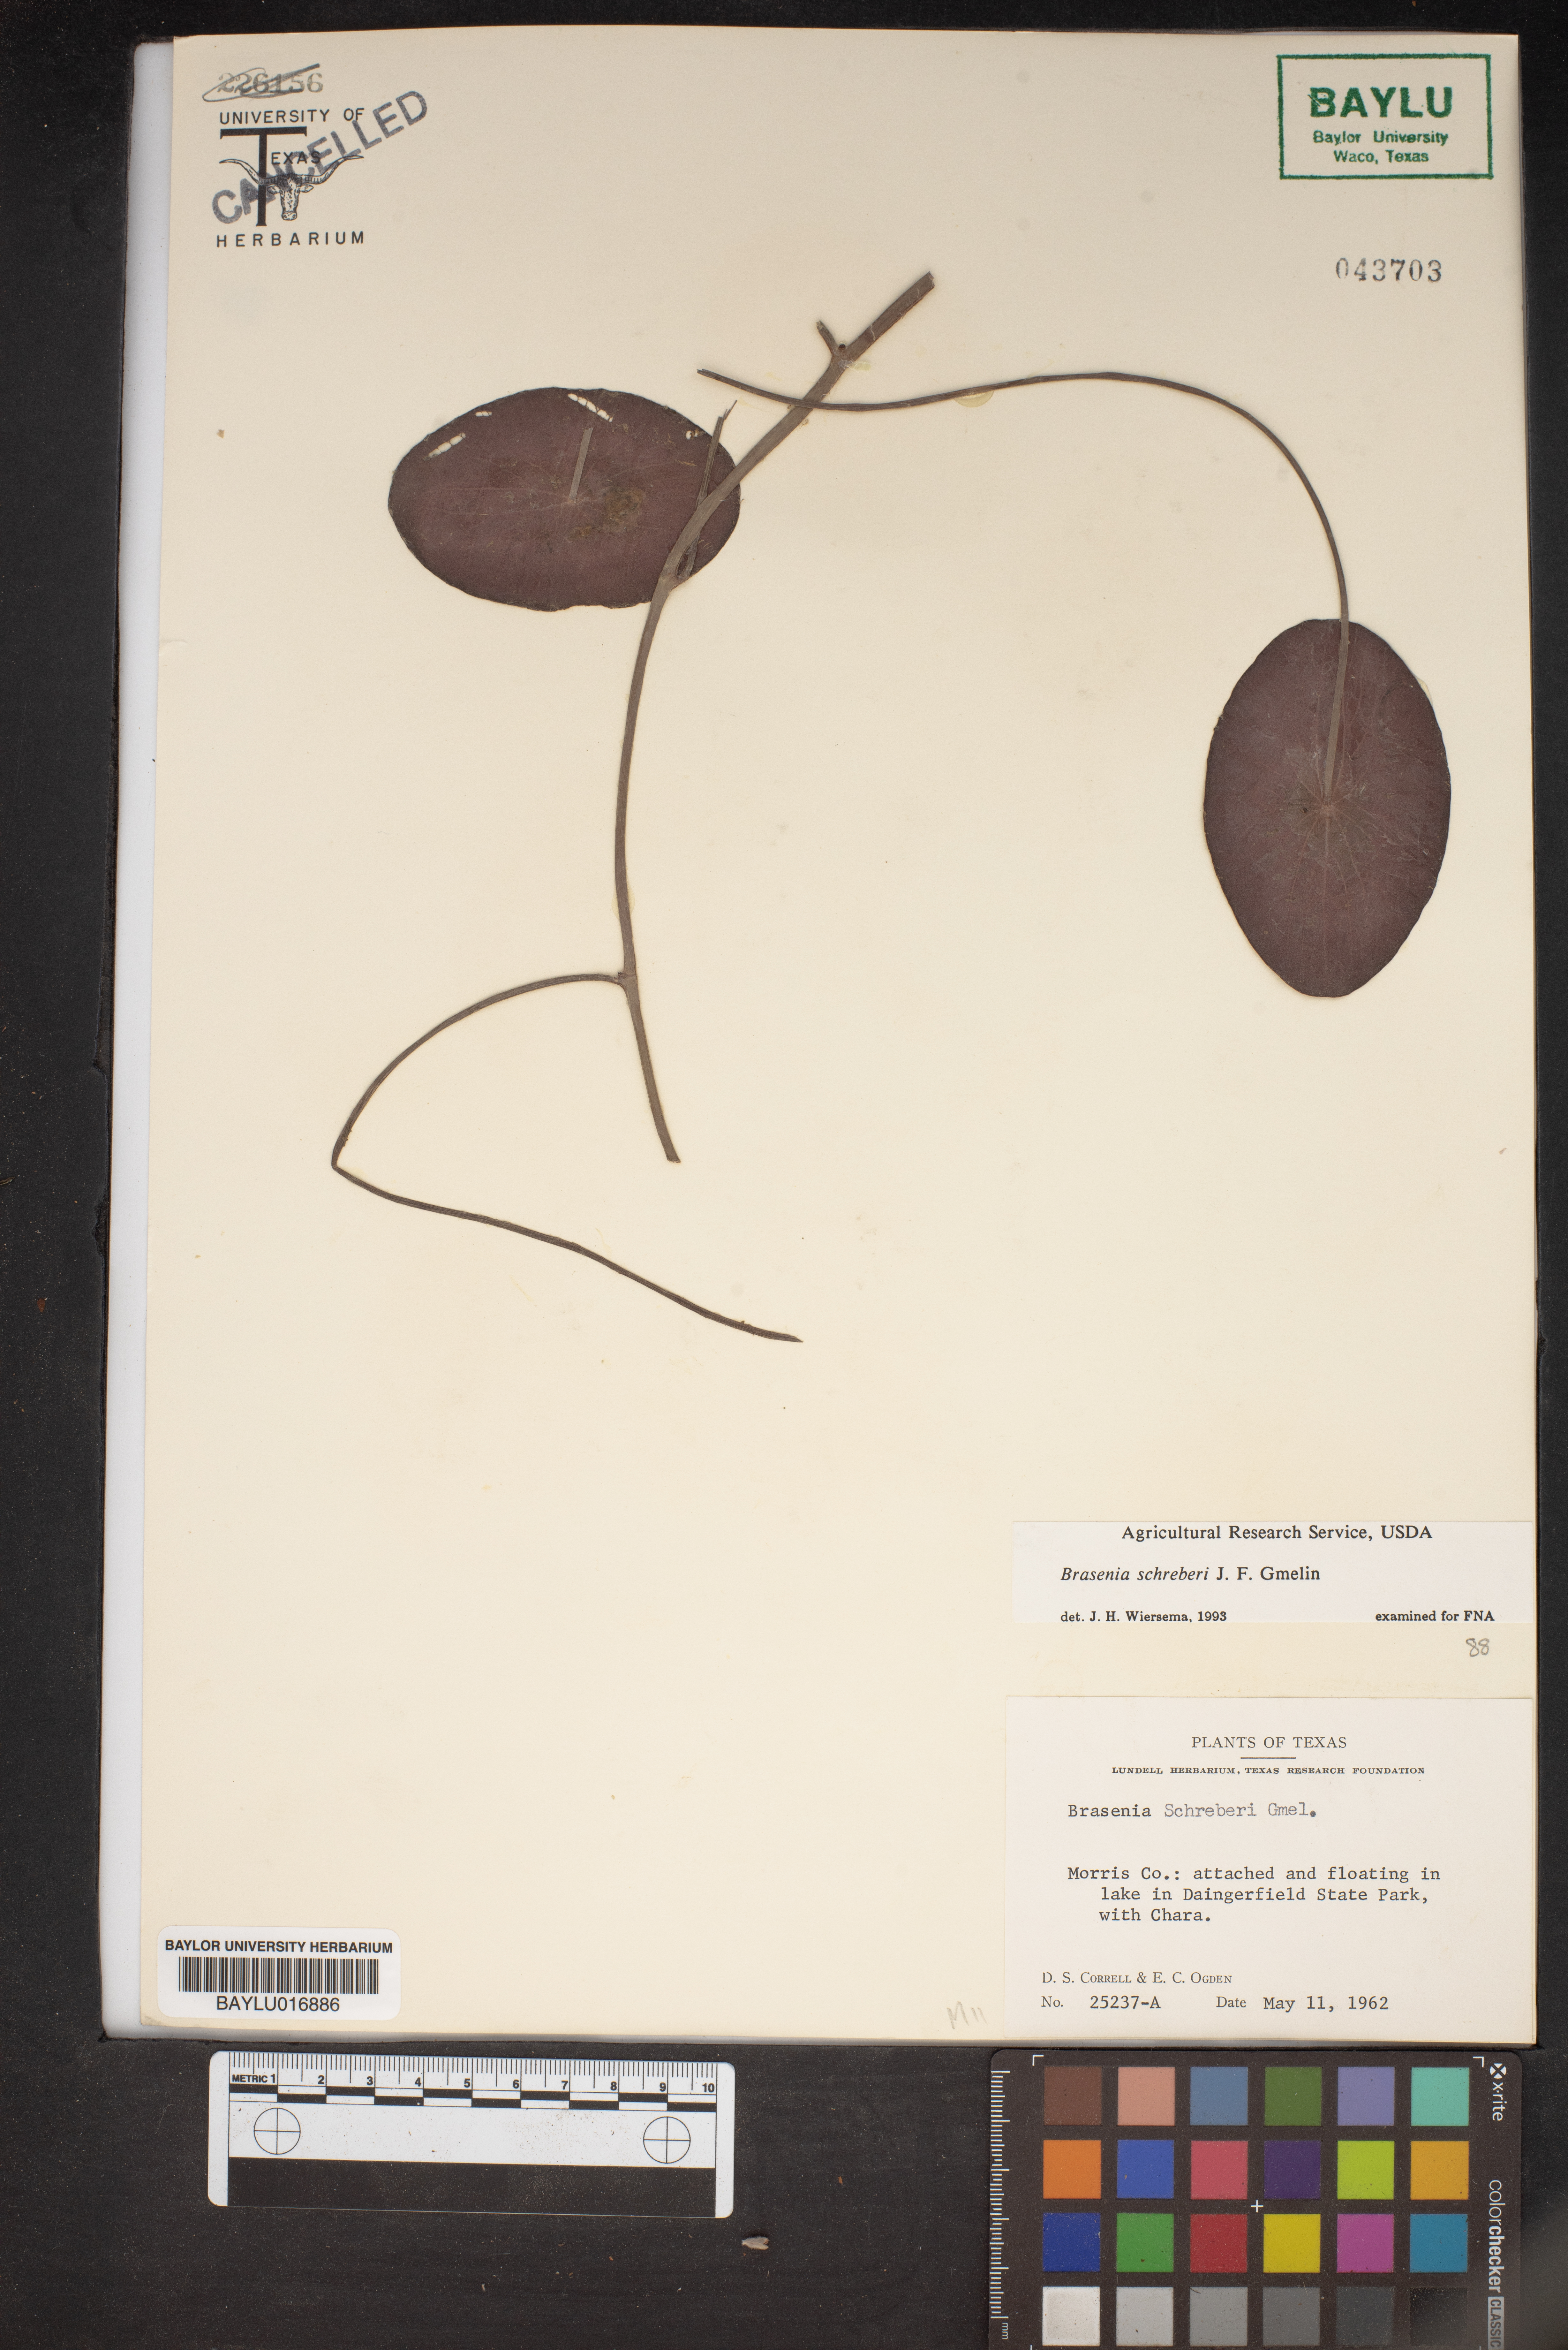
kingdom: Plantae
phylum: Tracheophyta
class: Magnoliopsida
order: Nymphaeales
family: Cabombaceae
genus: Brasenia
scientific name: Brasenia schreberi
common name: Water-shield
